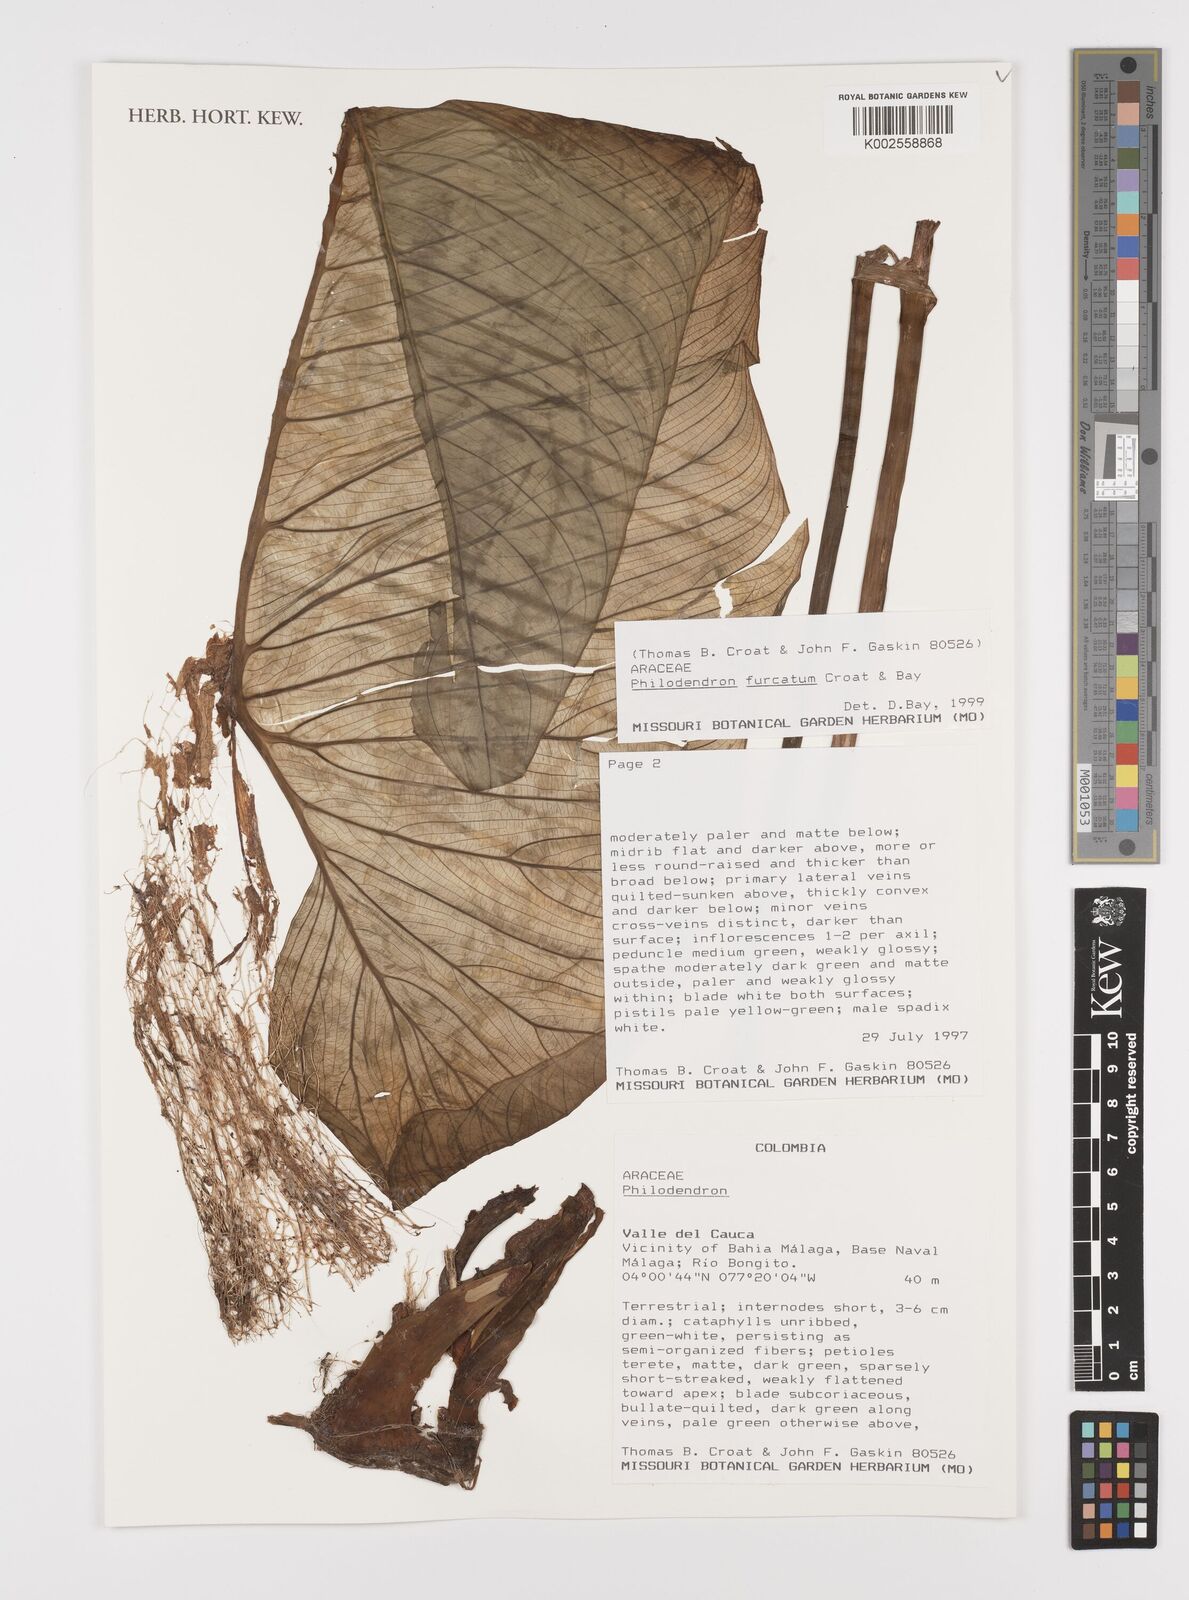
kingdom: Plantae
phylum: Tracheophyta
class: Liliopsida
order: Alismatales
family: Araceae
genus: Philodendron
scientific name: Philodendron furcatum
